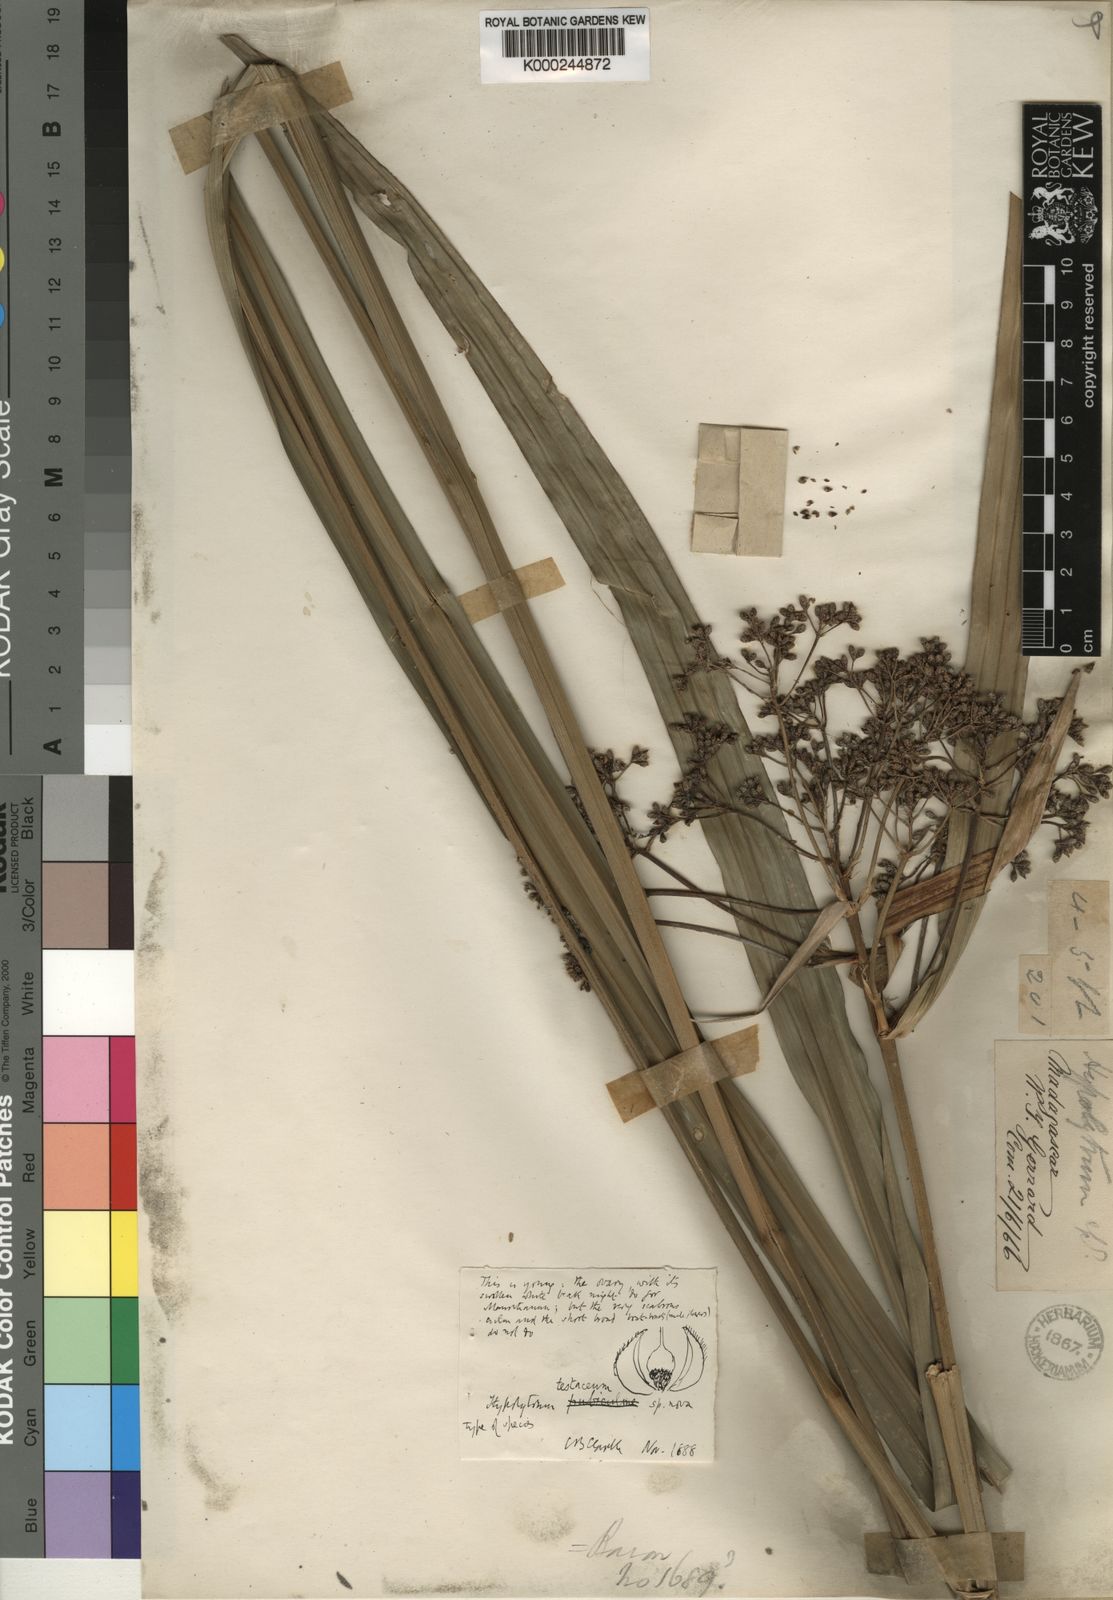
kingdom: Plantae
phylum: Tracheophyta
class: Liliopsida
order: Poales
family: Cyperaceae
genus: Hypolytrum
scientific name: Hypolytrum
